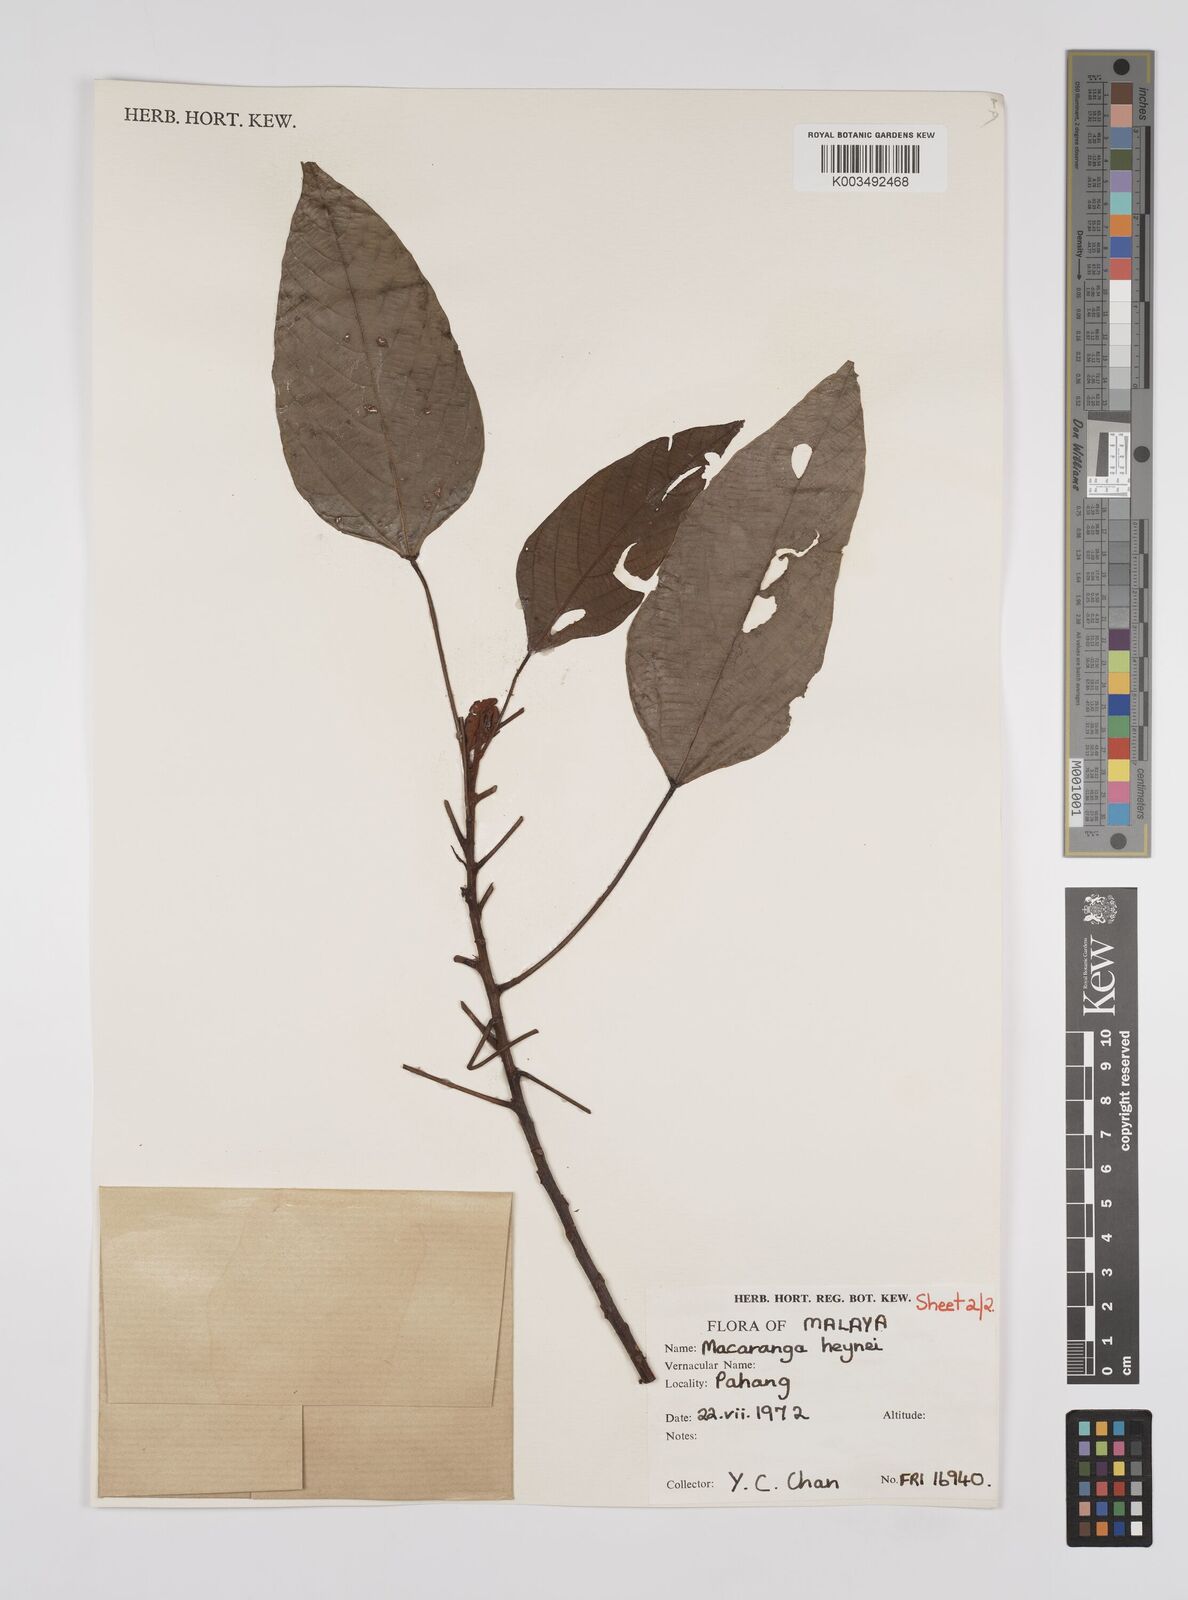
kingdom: Plantae
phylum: Tracheophyta
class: Magnoliopsida
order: Malpighiales
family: Euphorbiaceae
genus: Macaranga
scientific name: Macaranga heynei
